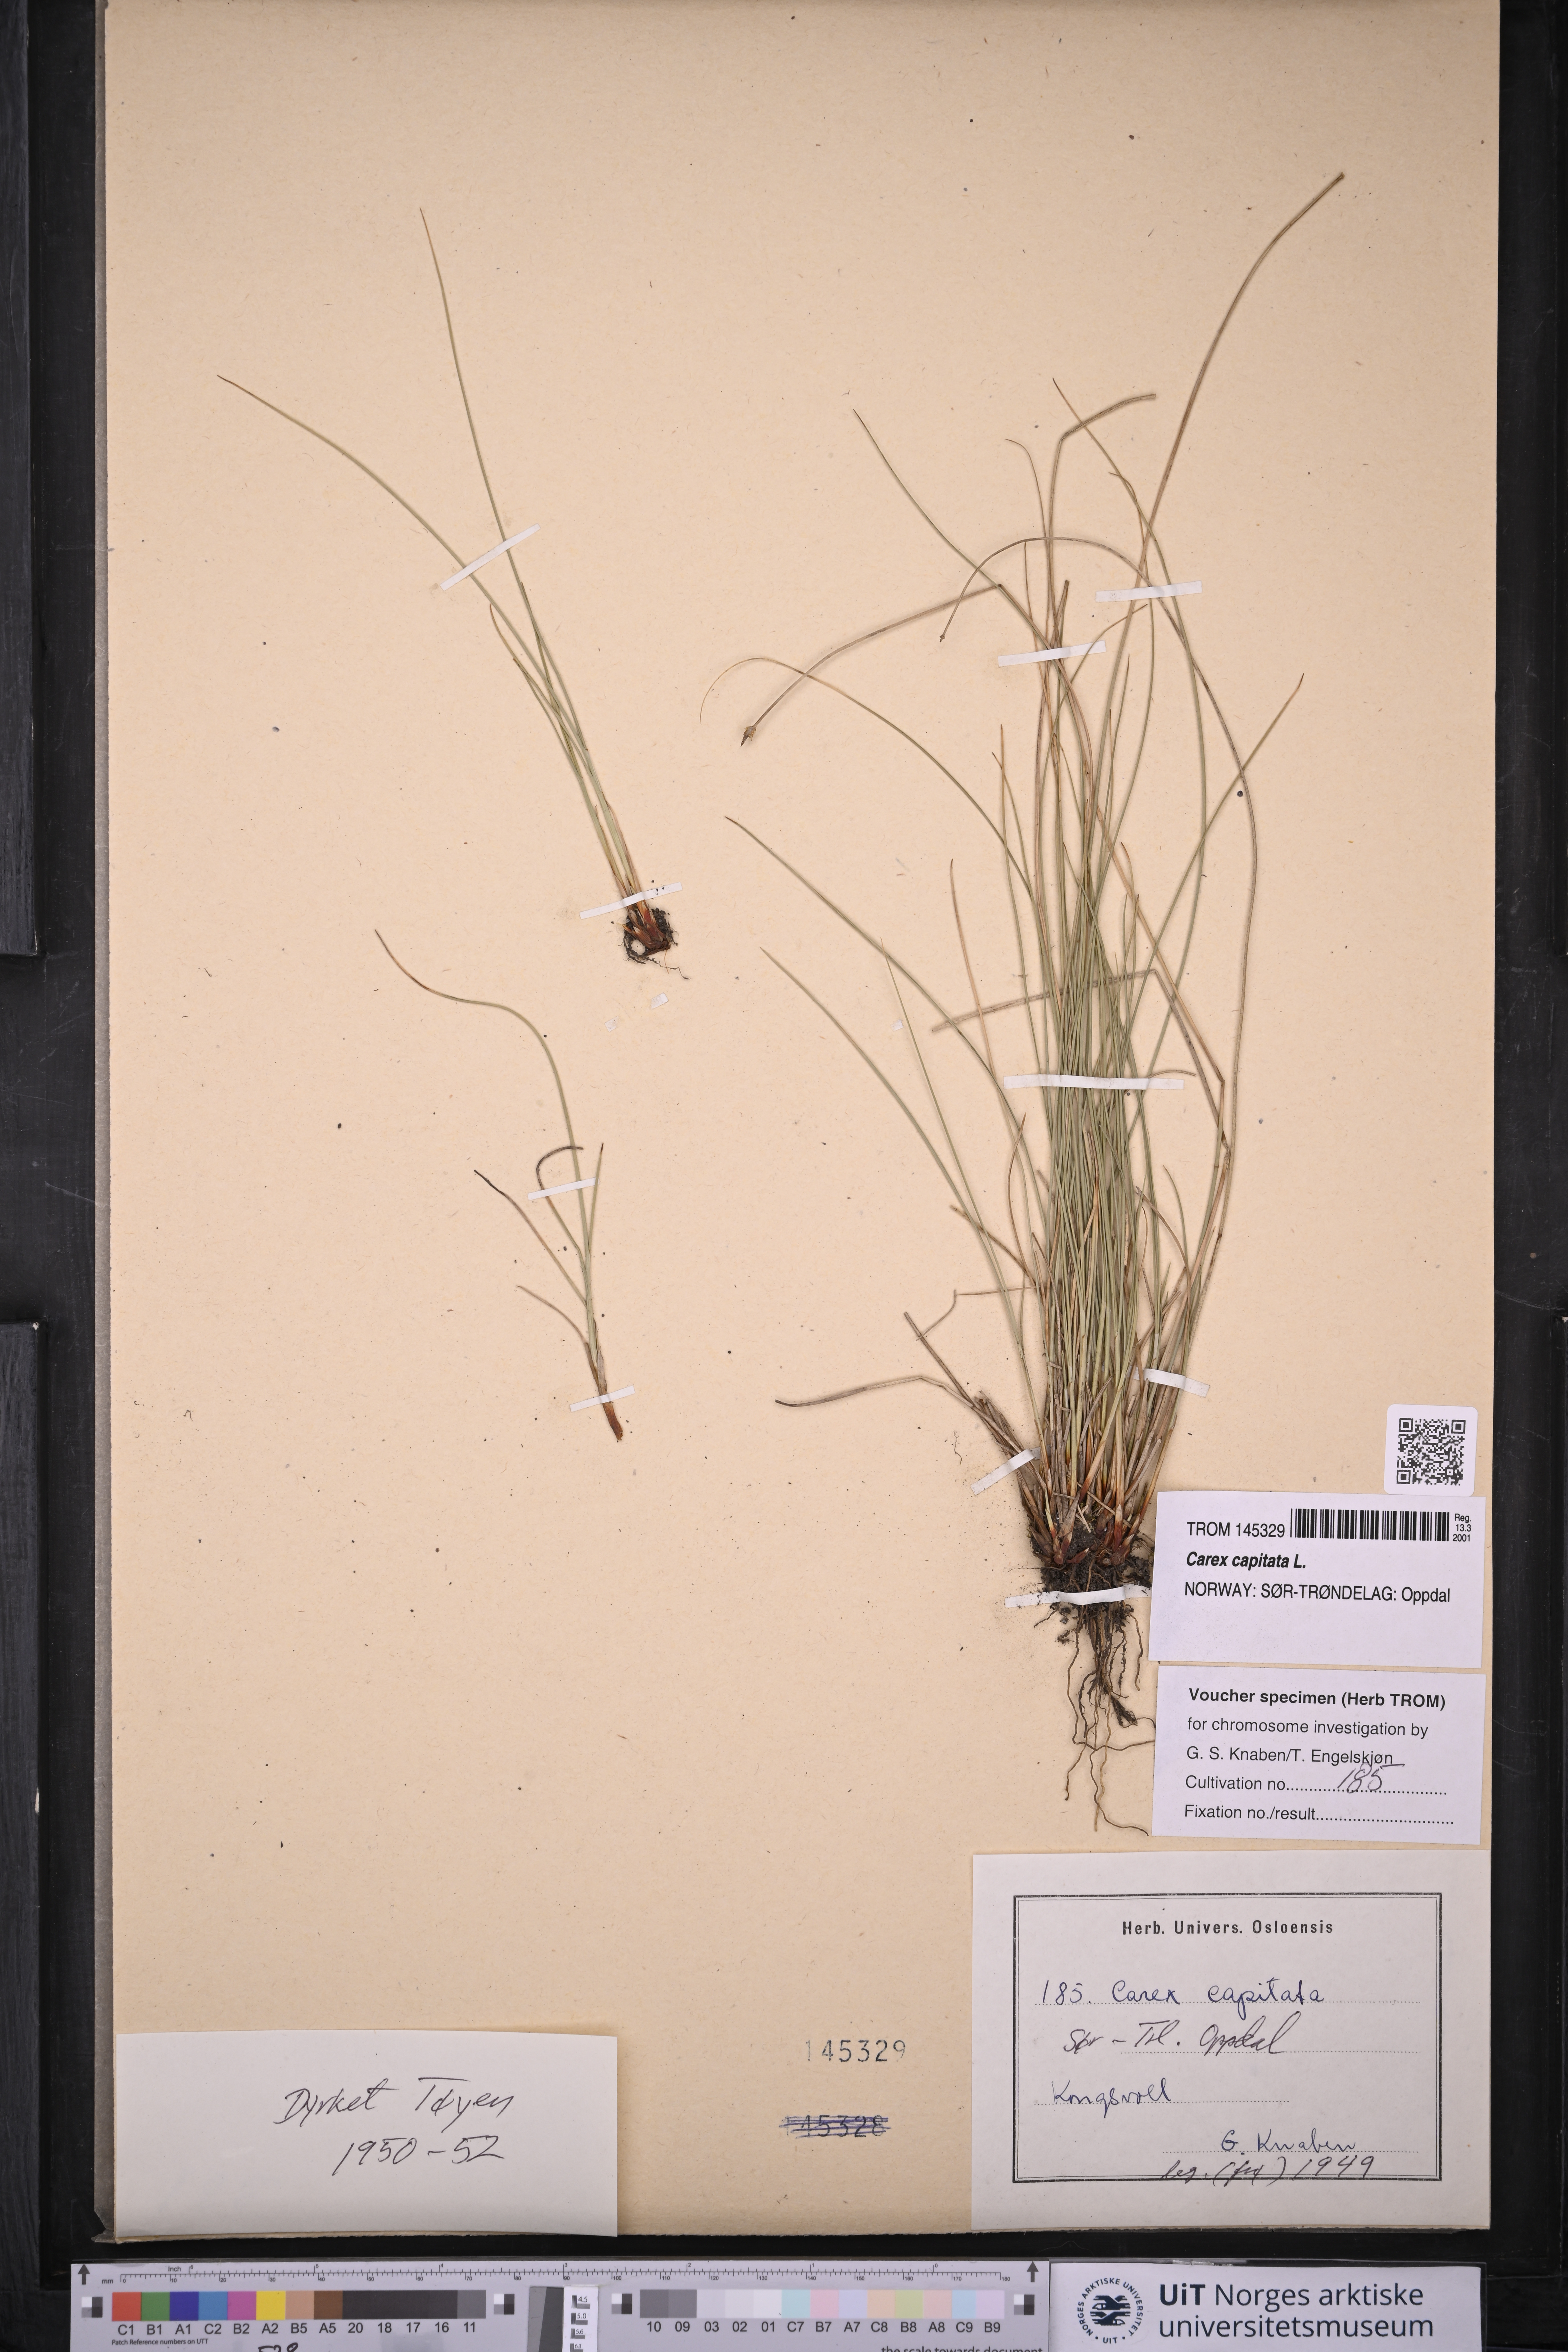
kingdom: Plantae
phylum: Tracheophyta
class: Liliopsida
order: Poales
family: Cyperaceae
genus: Carex
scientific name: Carex capitata
